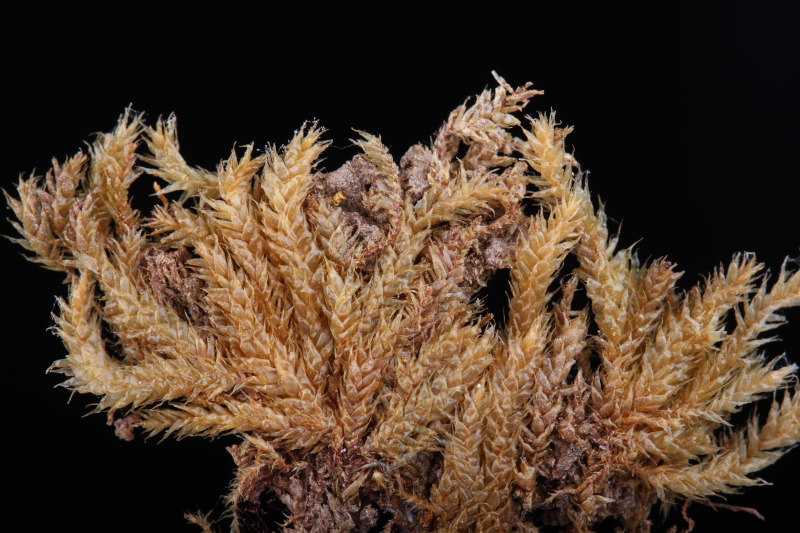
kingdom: Plantae
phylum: Bryophyta
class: Bryopsida
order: Ptychomniales
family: Ptychomniaceae
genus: Glyphothecium
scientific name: Glyphothecium sciuroides
